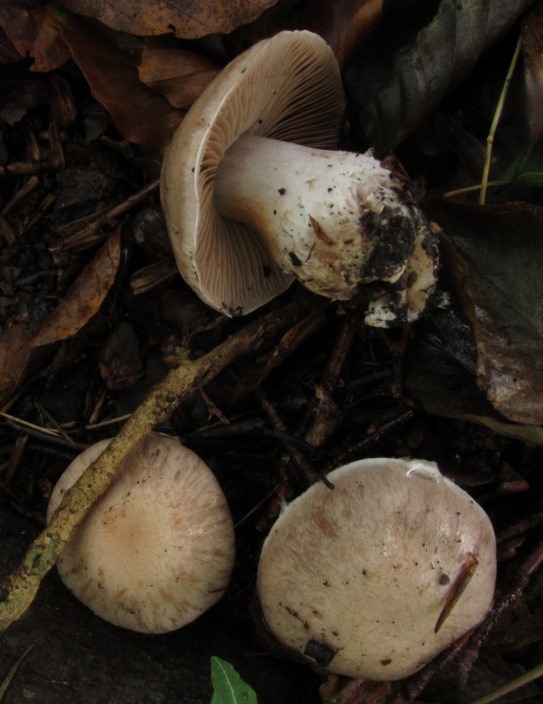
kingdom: Fungi
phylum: Basidiomycota
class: Agaricomycetes
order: Agaricales
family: Cortinariaceae
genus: Cortinarius
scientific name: Cortinarius turgidus
